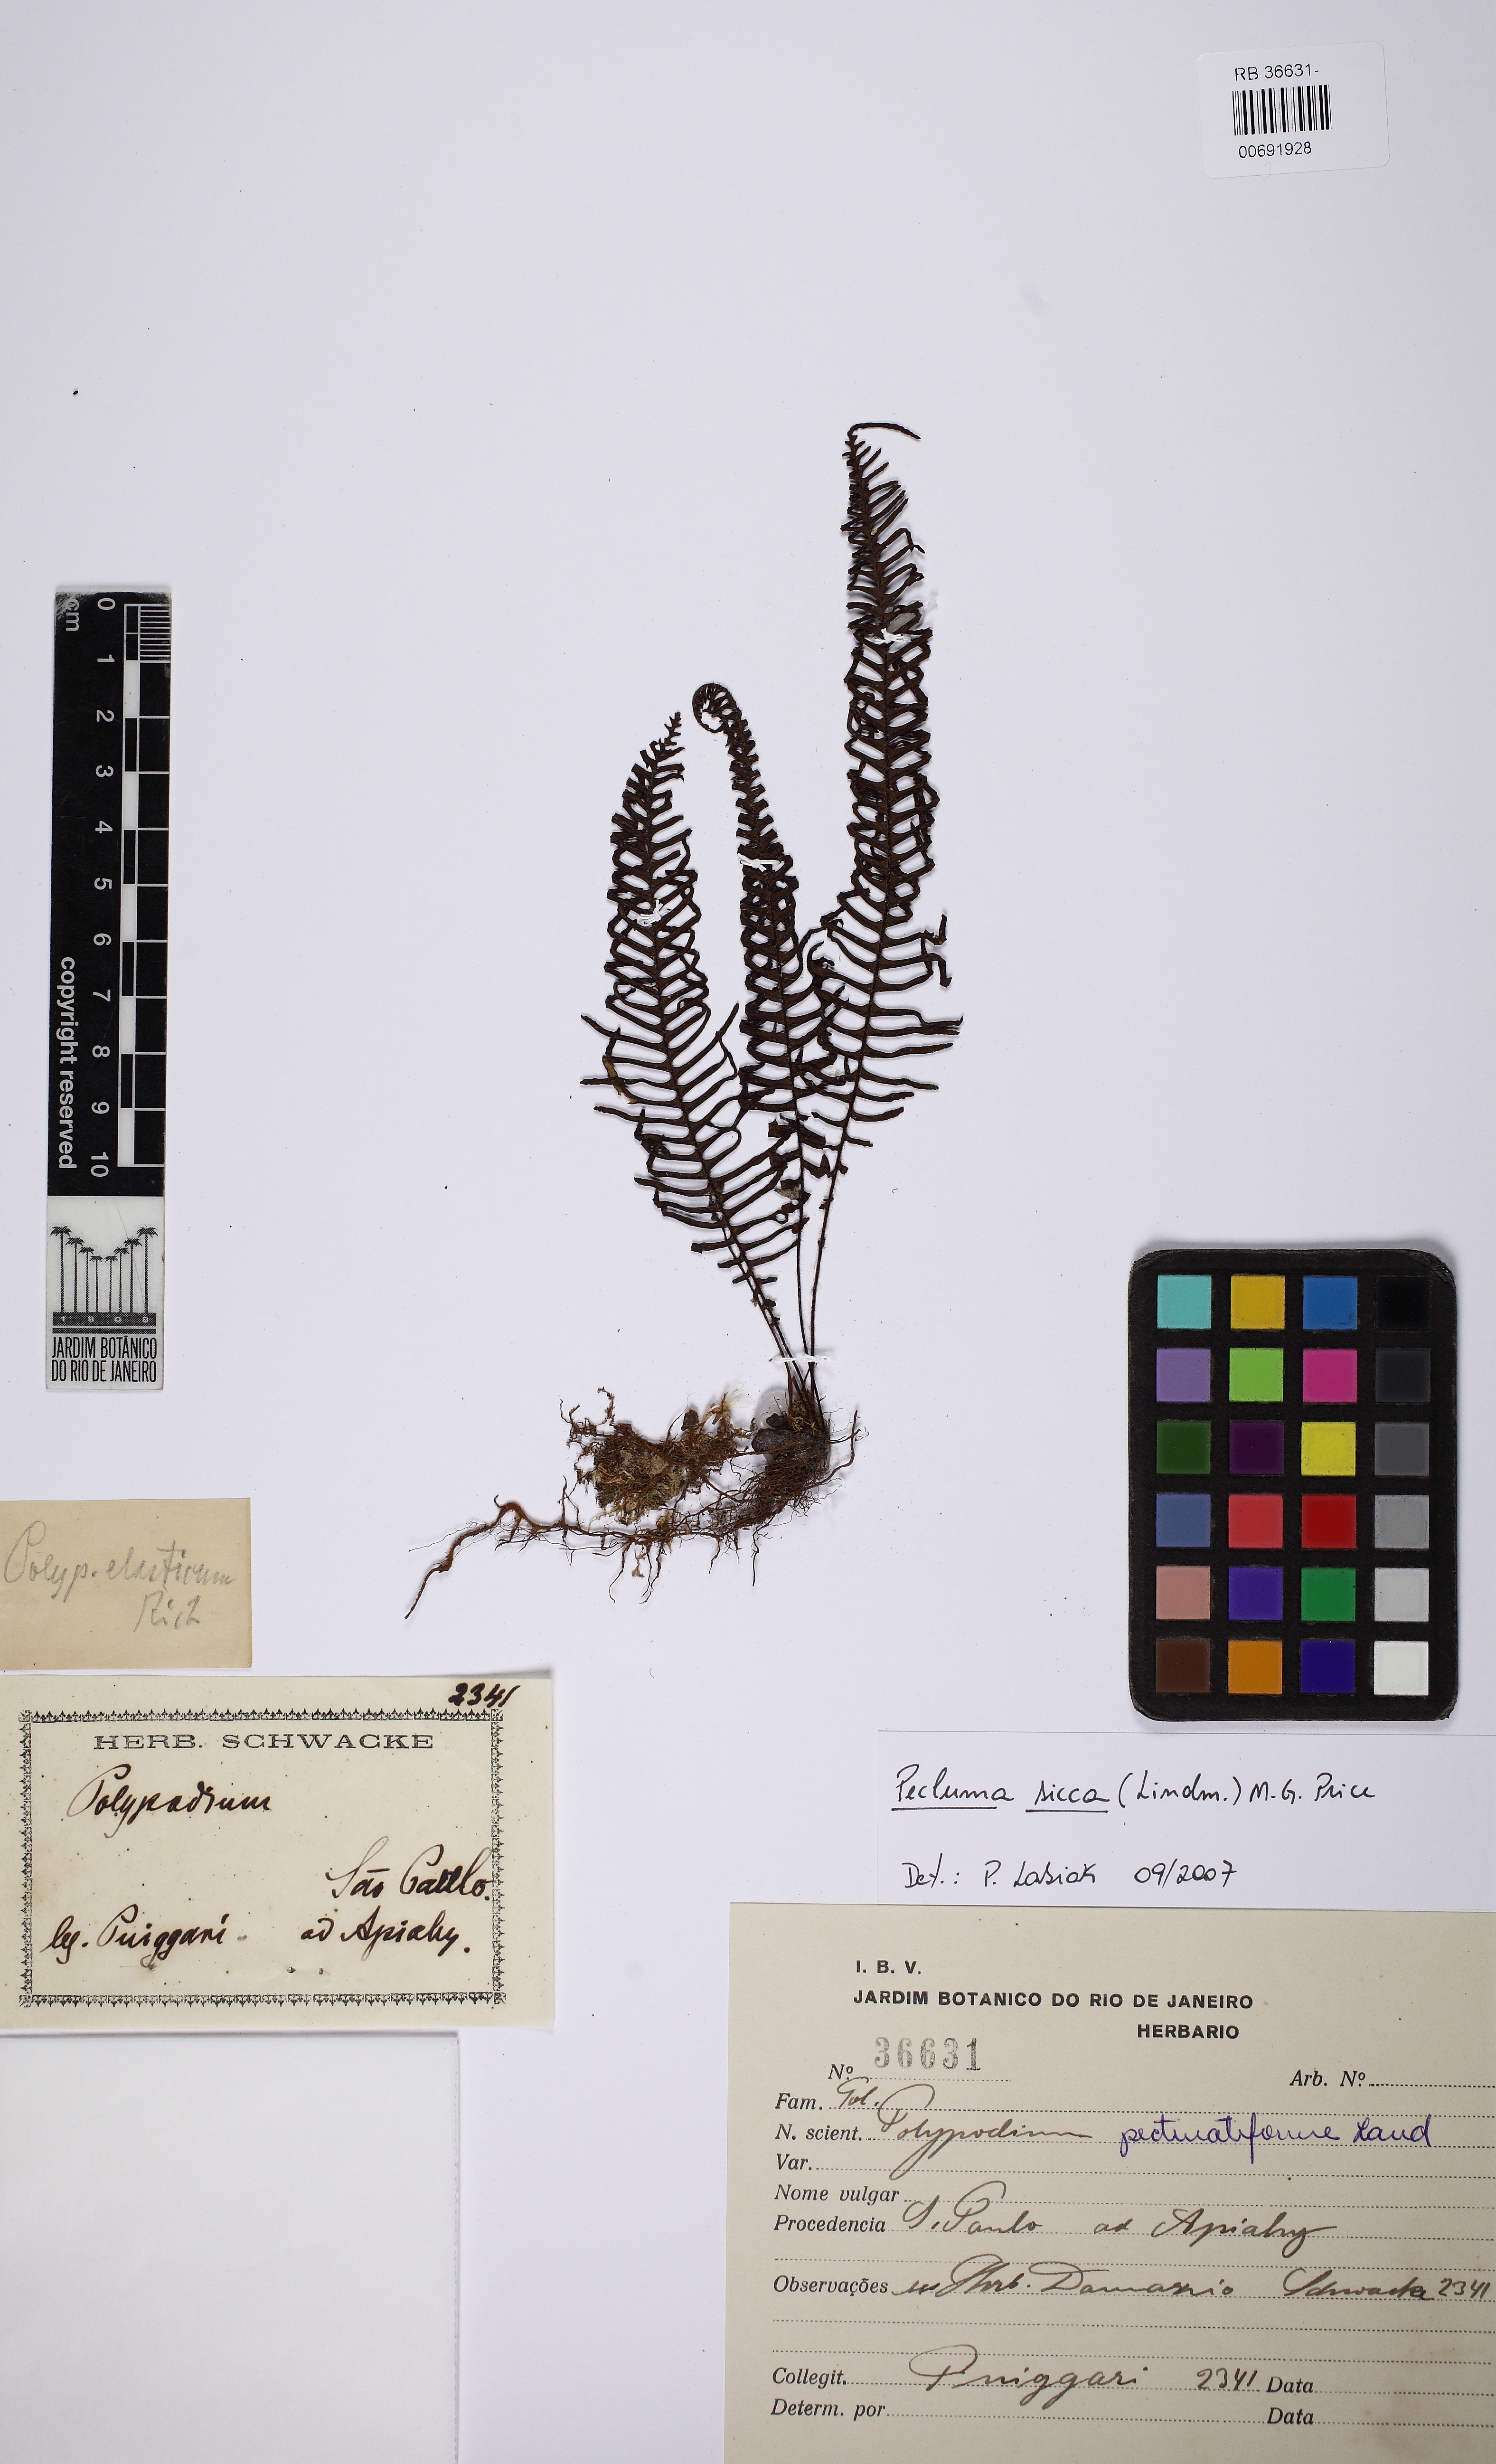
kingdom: Plantae
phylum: Tracheophyta
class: Polypodiopsida
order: Polypodiales
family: Polypodiaceae
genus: Pecluma
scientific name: Pecluma sicca
